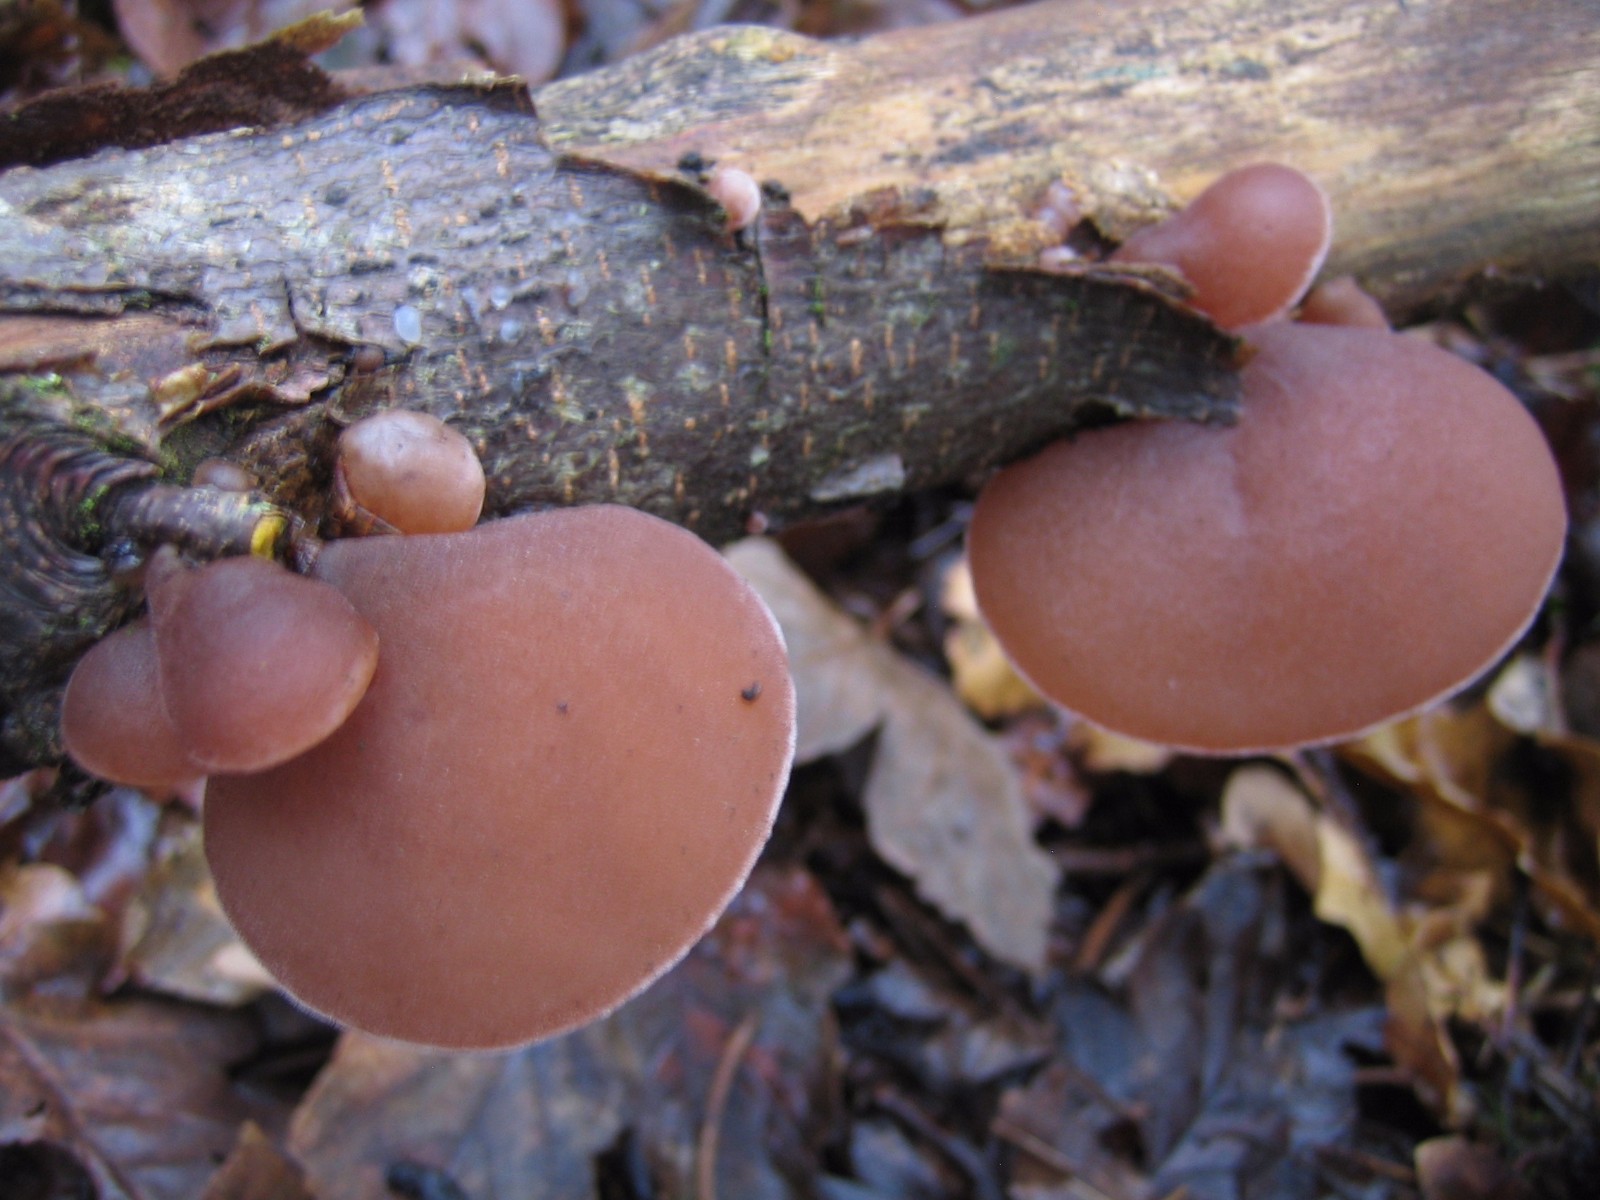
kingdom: Fungi
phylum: Basidiomycota
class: Agaricomycetes
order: Auriculariales
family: Auriculariaceae
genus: Auricularia
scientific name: Auricularia auricula-judae
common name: almindelig judasøre
